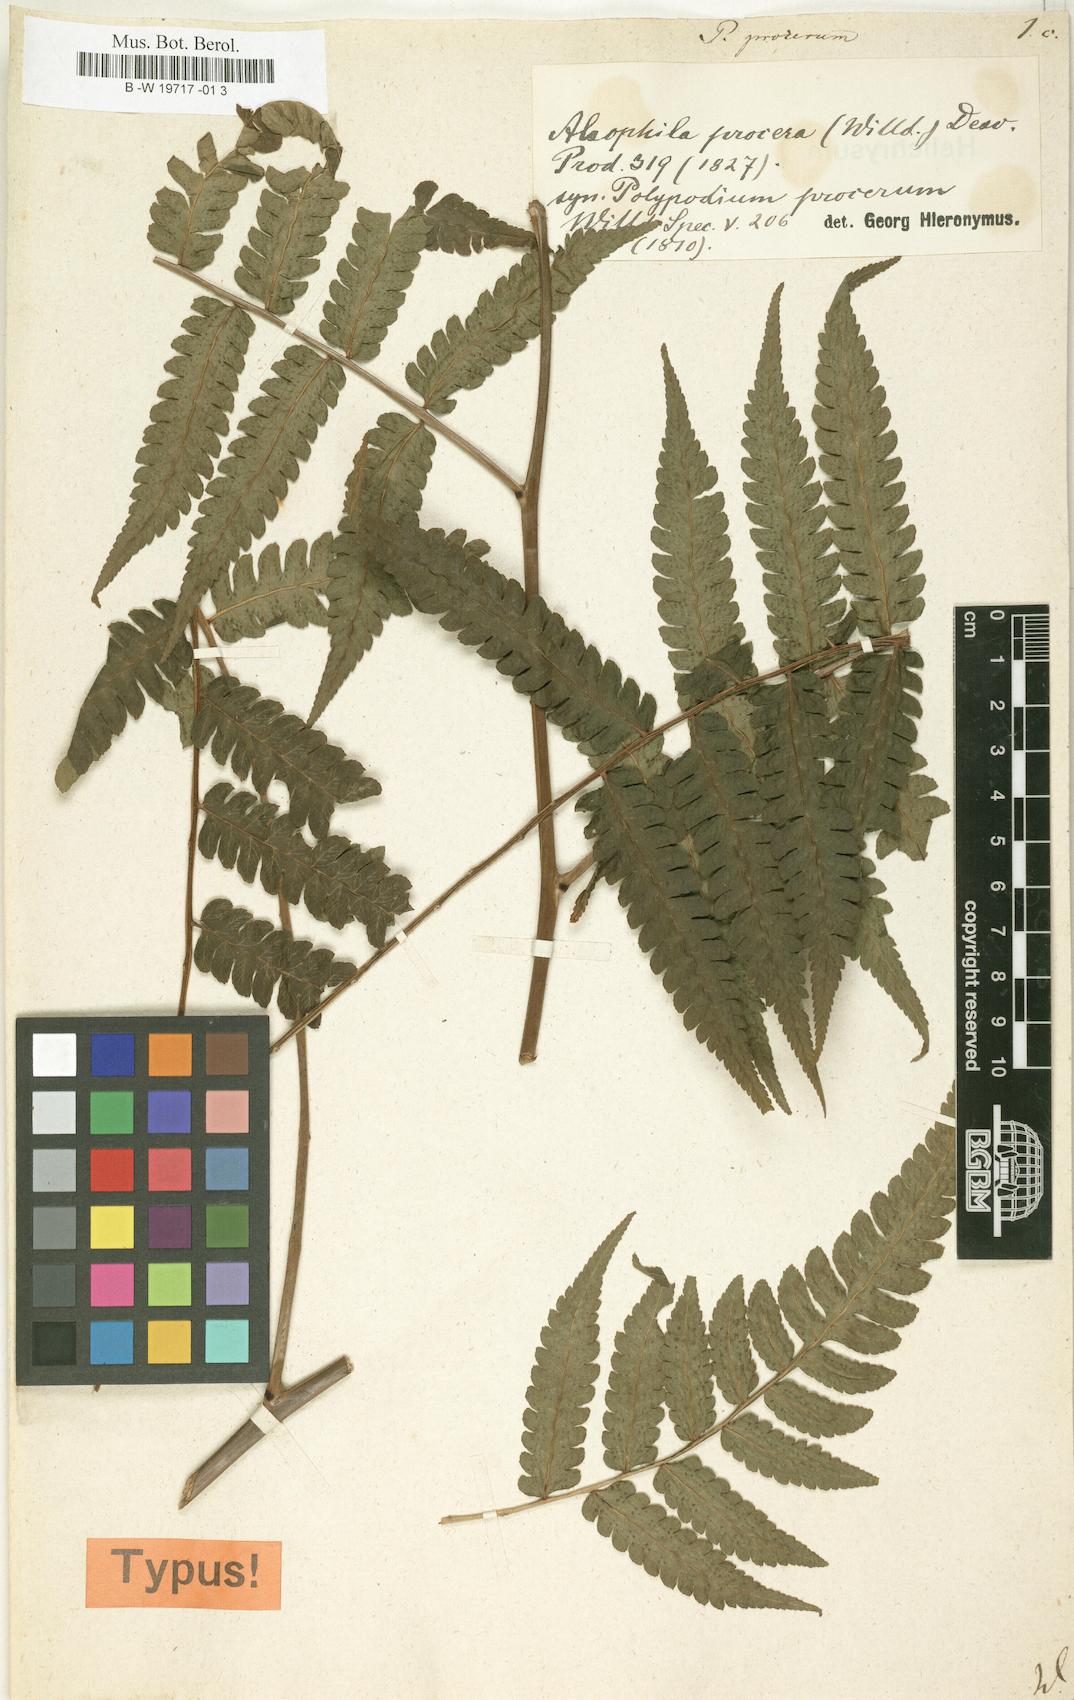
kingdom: Plantae
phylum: Tracheophyta
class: Polypodiopsida
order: Polypodiales
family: Polypodiaceae
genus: Selliguea
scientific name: Selliguea moulmeinensis
